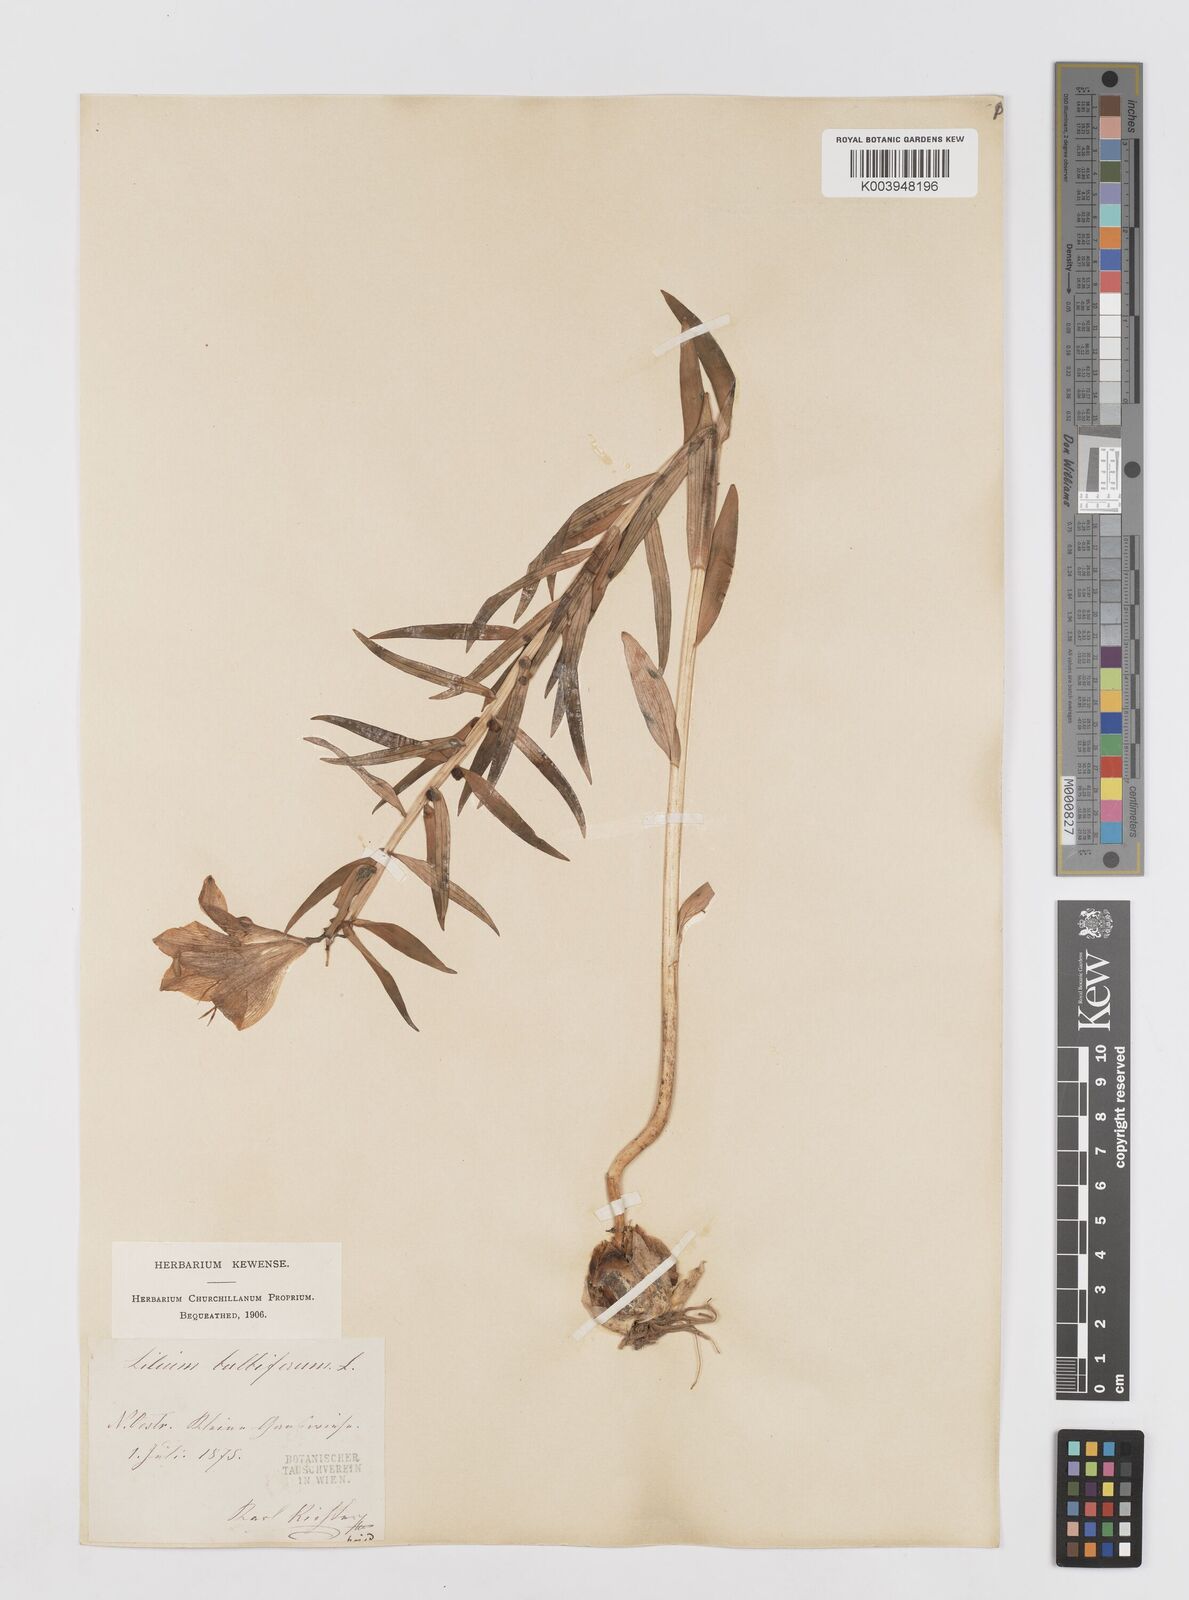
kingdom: Plantae
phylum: Tracheophyta
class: Liliopsida
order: Liliales
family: Liliaceae
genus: Lilium
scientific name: Lilium bulbiferum
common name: Orange lily
